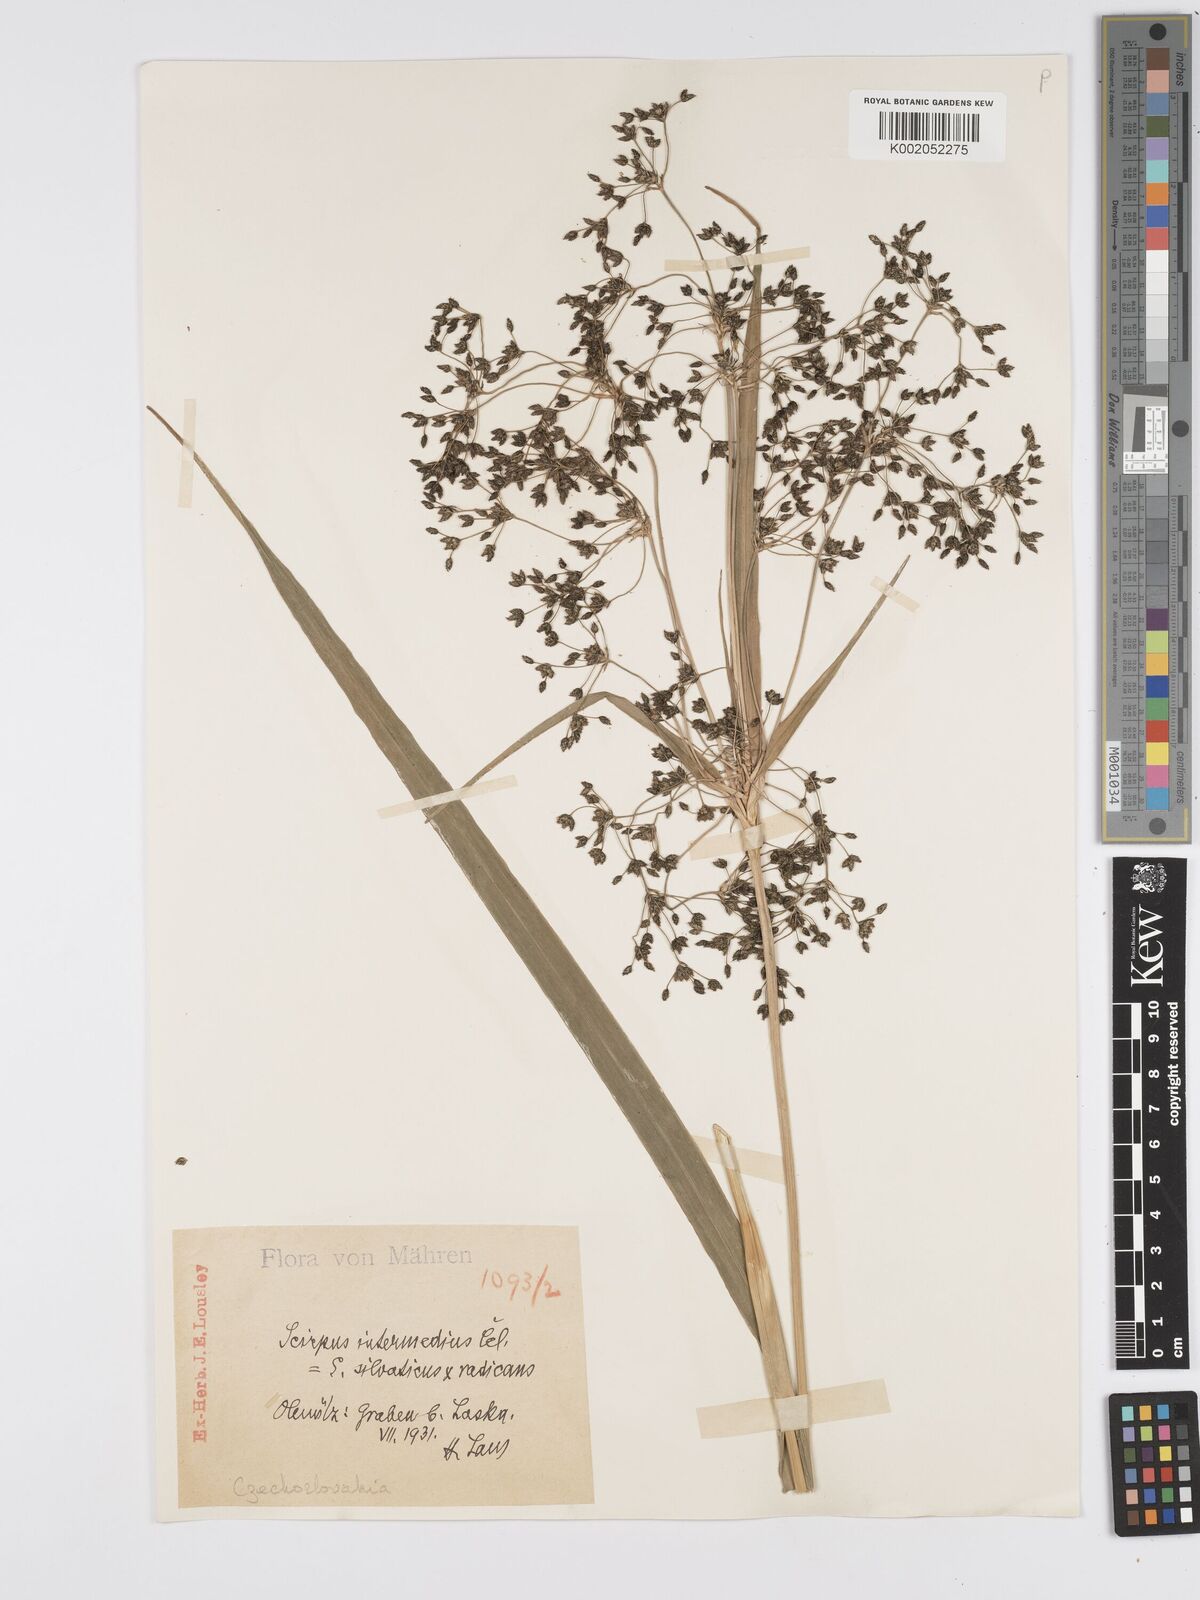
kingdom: Plantae
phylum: Tracheophyta
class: Liliopsida
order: Poales
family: Cyperaceae
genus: Scirpus
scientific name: Scirpus
